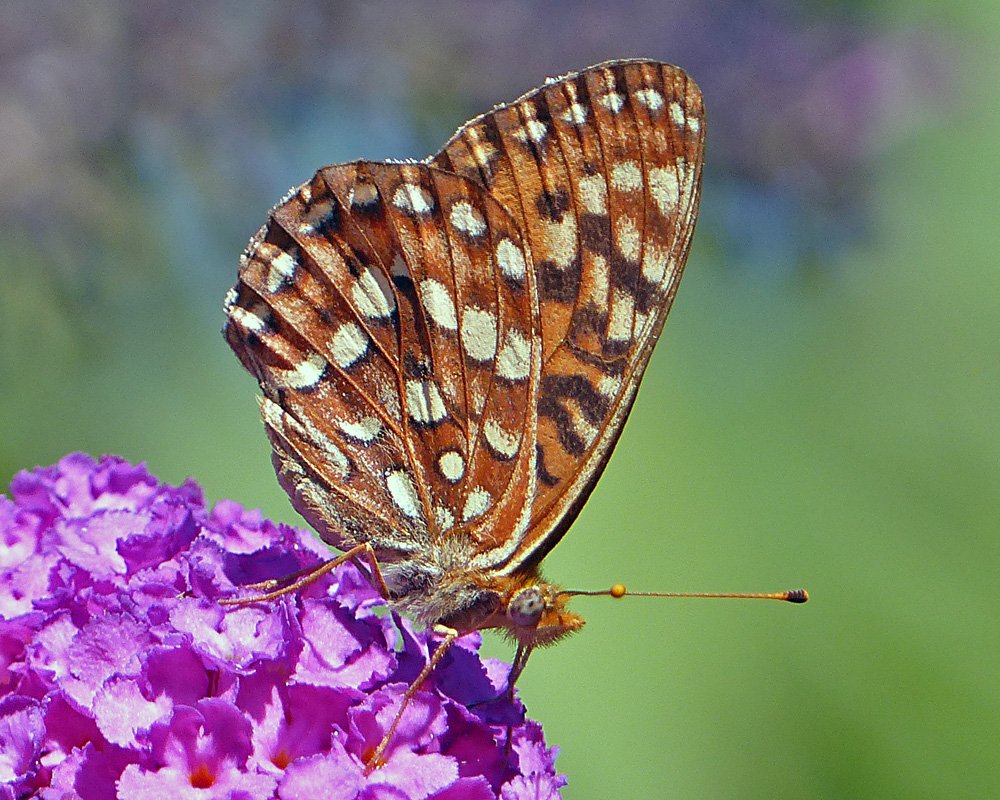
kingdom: Animalia
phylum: Arthropoda
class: Insecta
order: Lepidoptera
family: Nymphalidae
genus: Speyeria
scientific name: Speyeria hydaspe
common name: Hydaspe Fritillary
